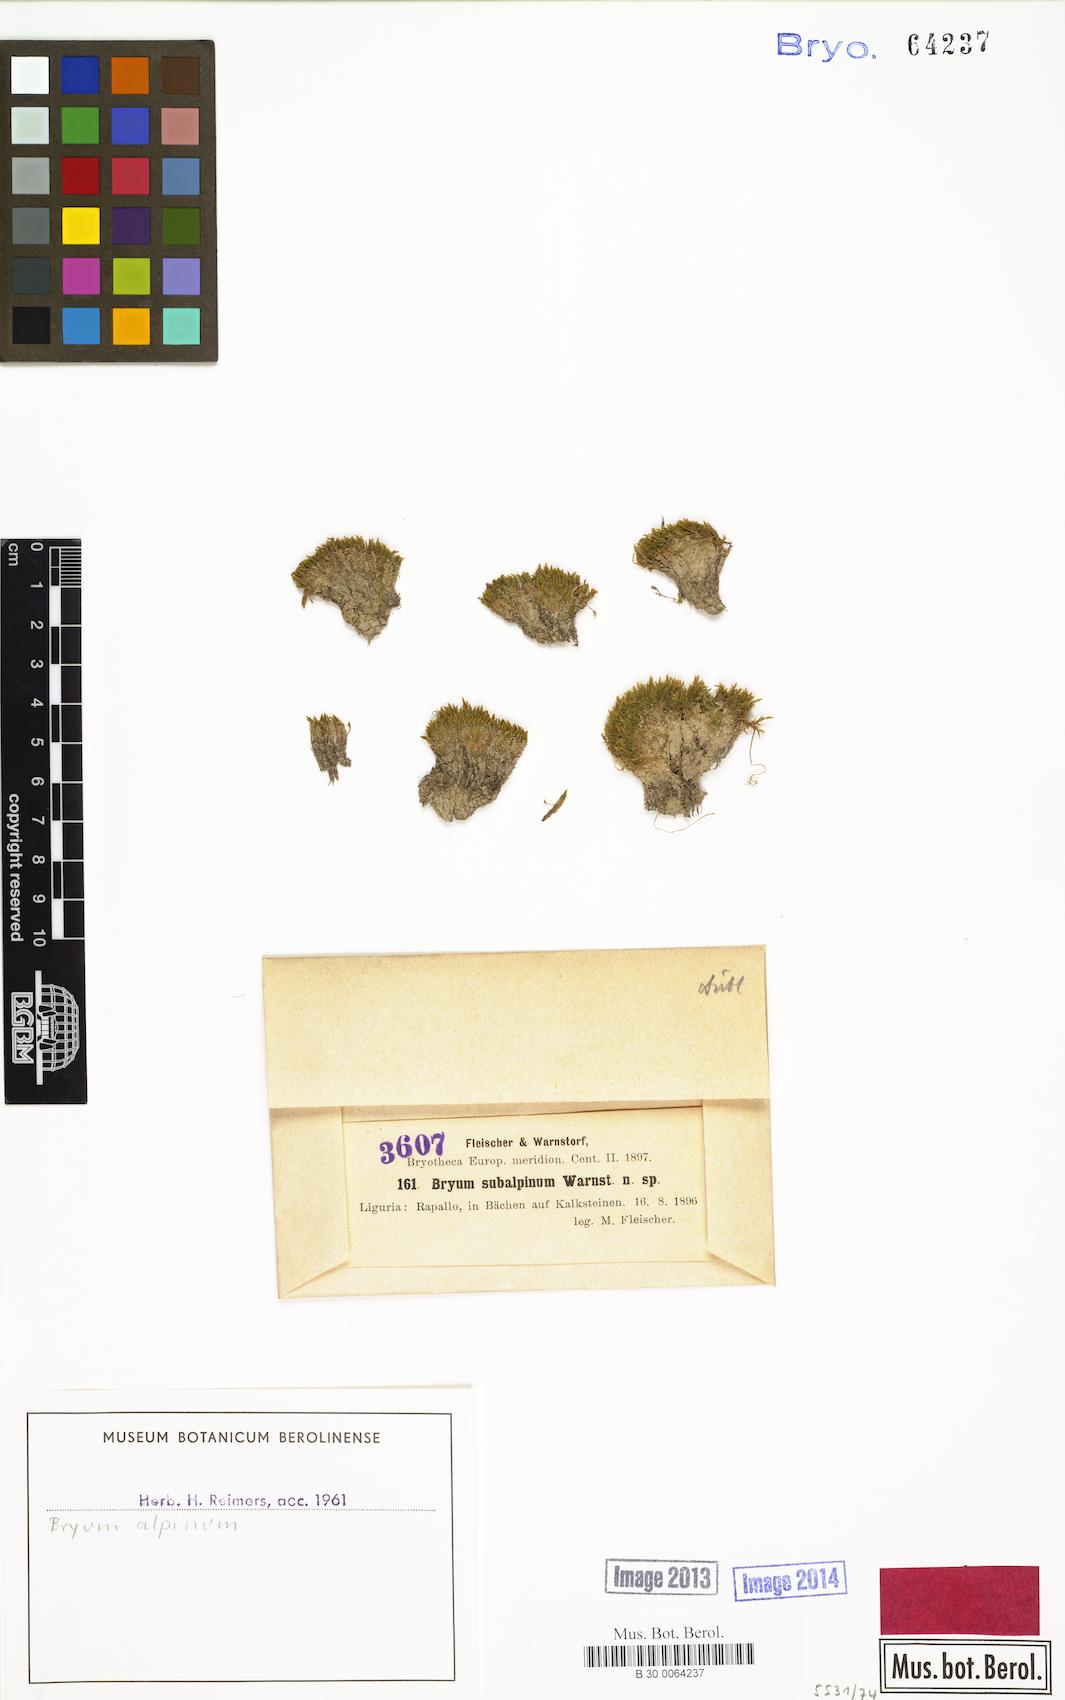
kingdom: Plantae
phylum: Bryophyta
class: Bryopsida
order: Bryales
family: Bryaceae
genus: Imbribryum
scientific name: Imbribryum alpinum
